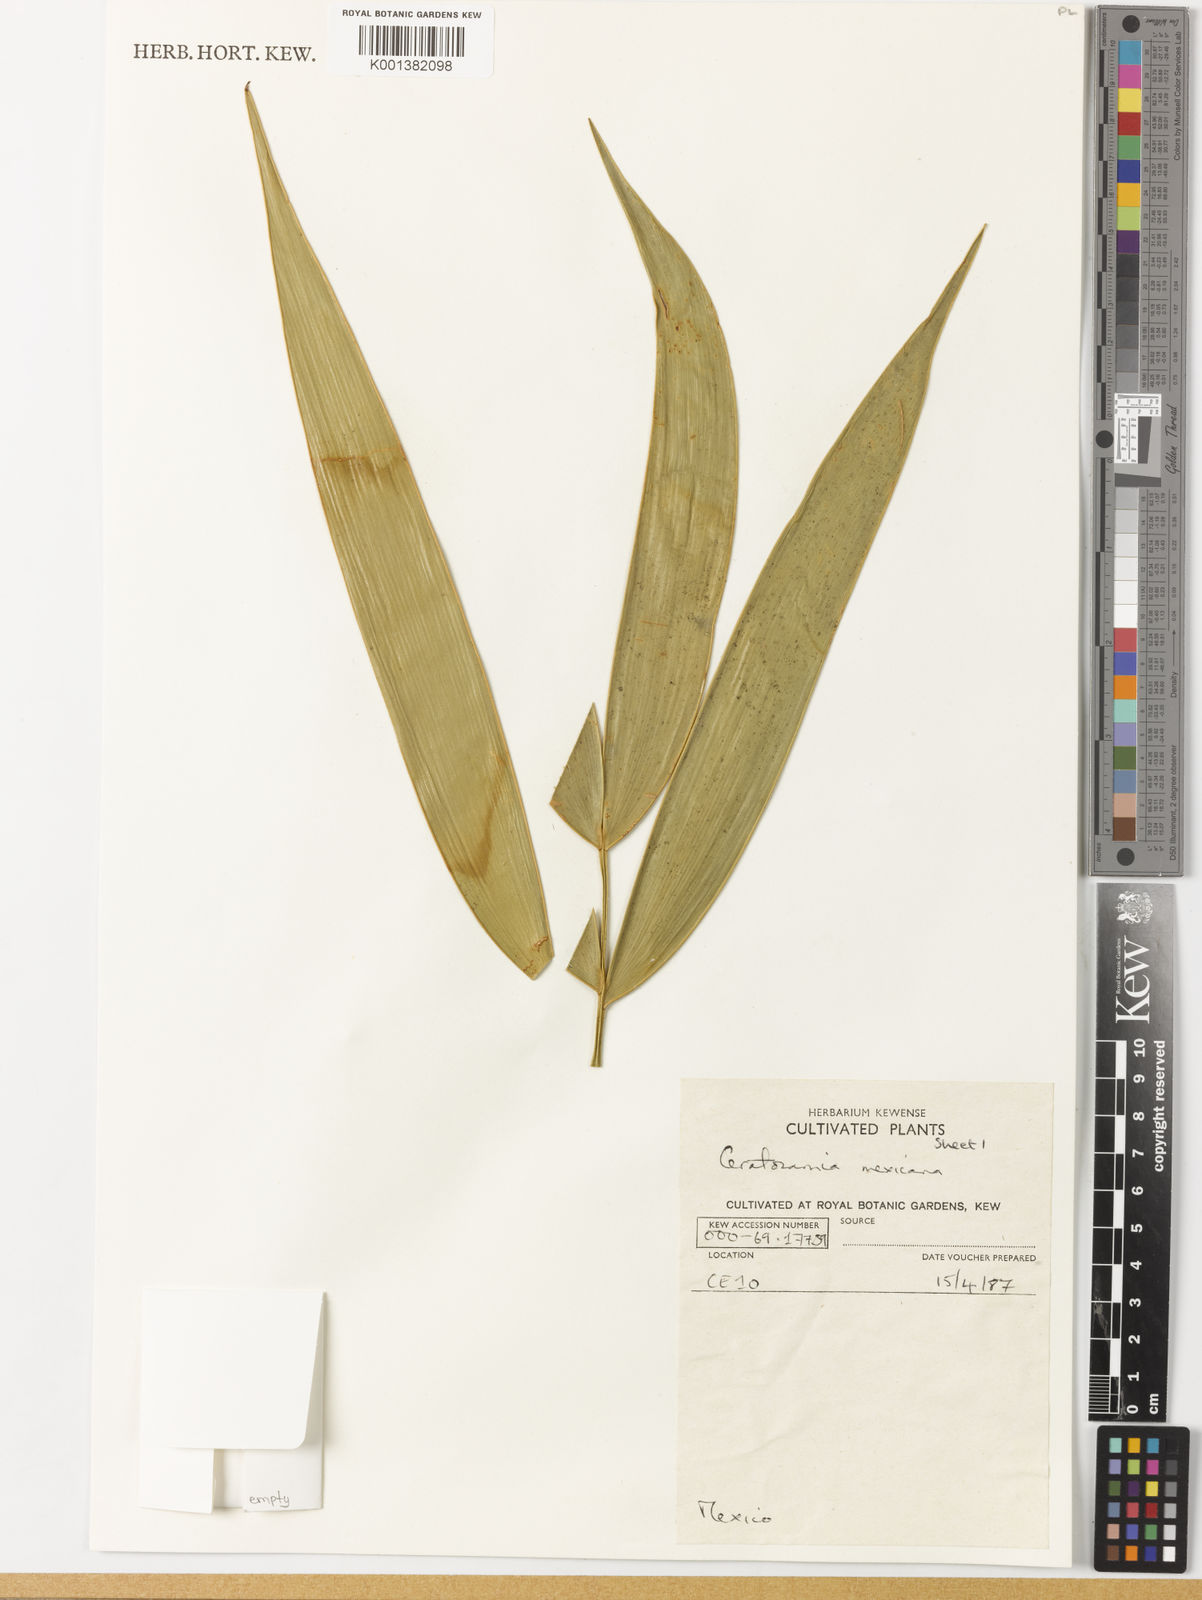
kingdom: Plantae
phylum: Tracheophyta
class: Cycadopsida
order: Cycadales
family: Zamiaceae
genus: Ceratozamia
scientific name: Ceratozamia mexicana
